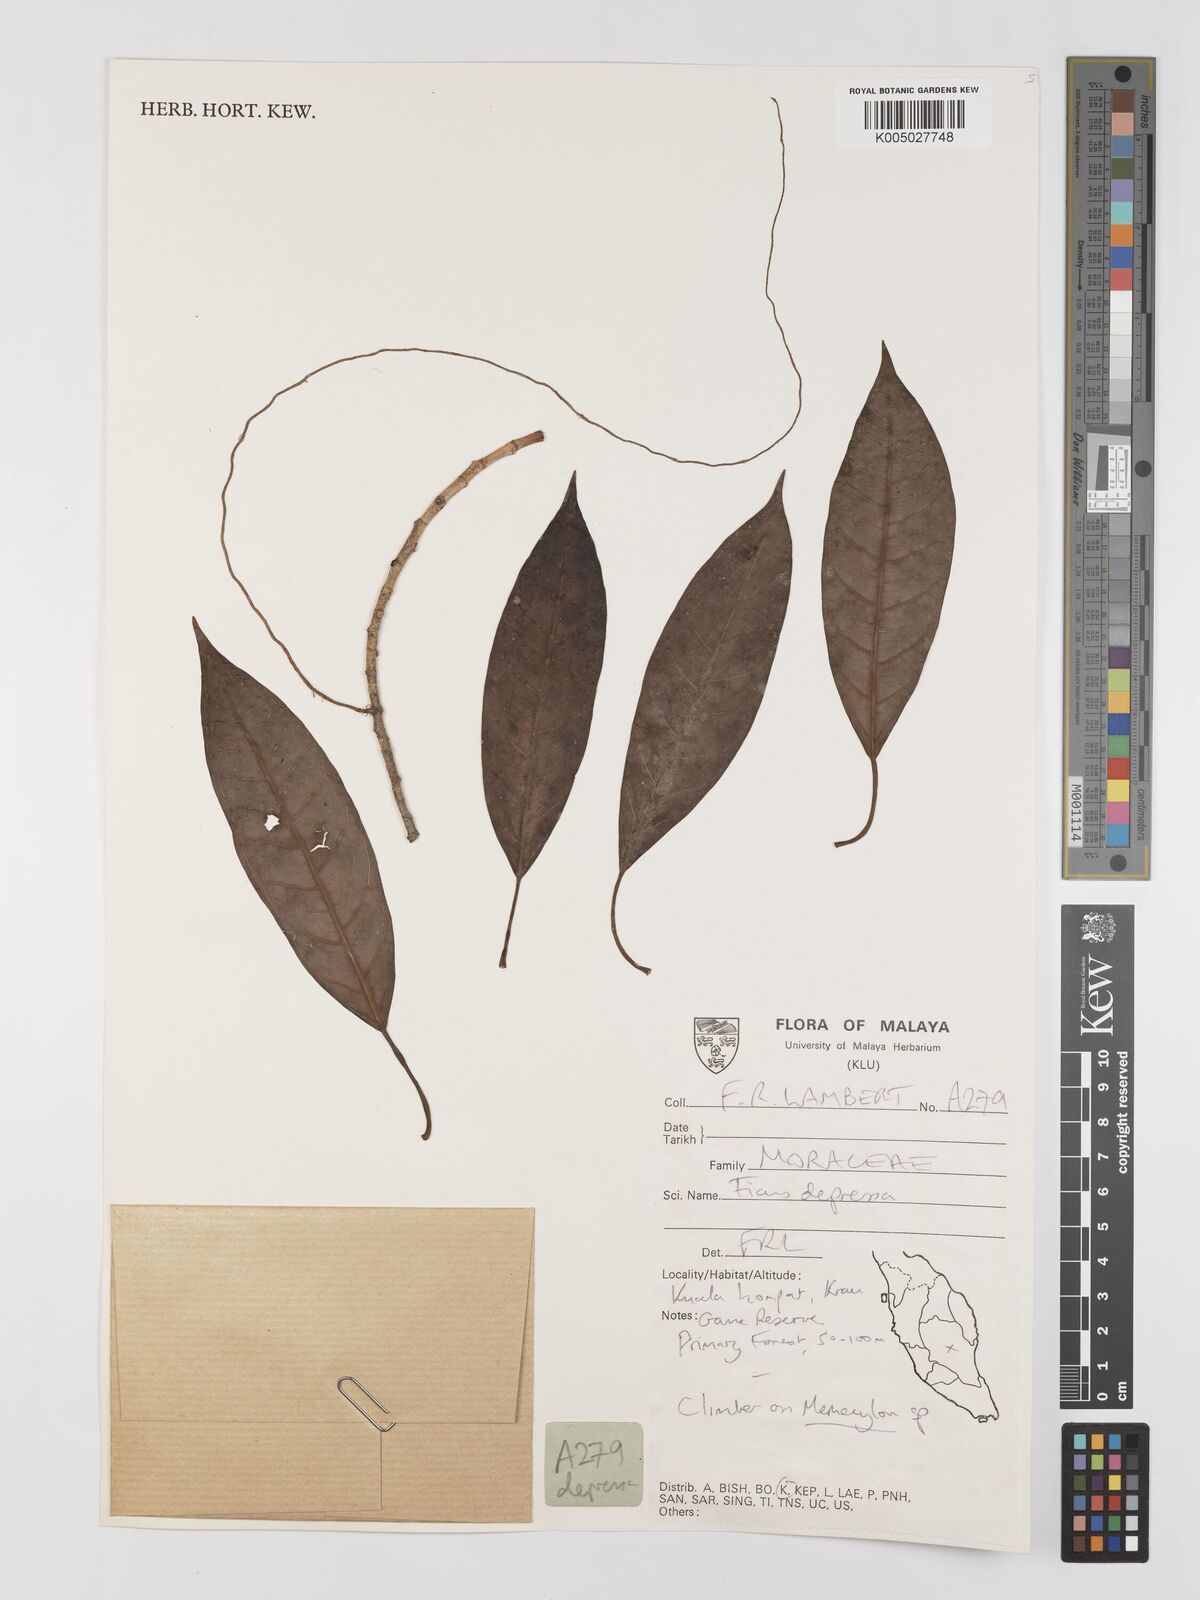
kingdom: Plantae
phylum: Tracheophyta
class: Magnoliopsida
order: Rosales
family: Moraceae
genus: Ficus
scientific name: Ficus
